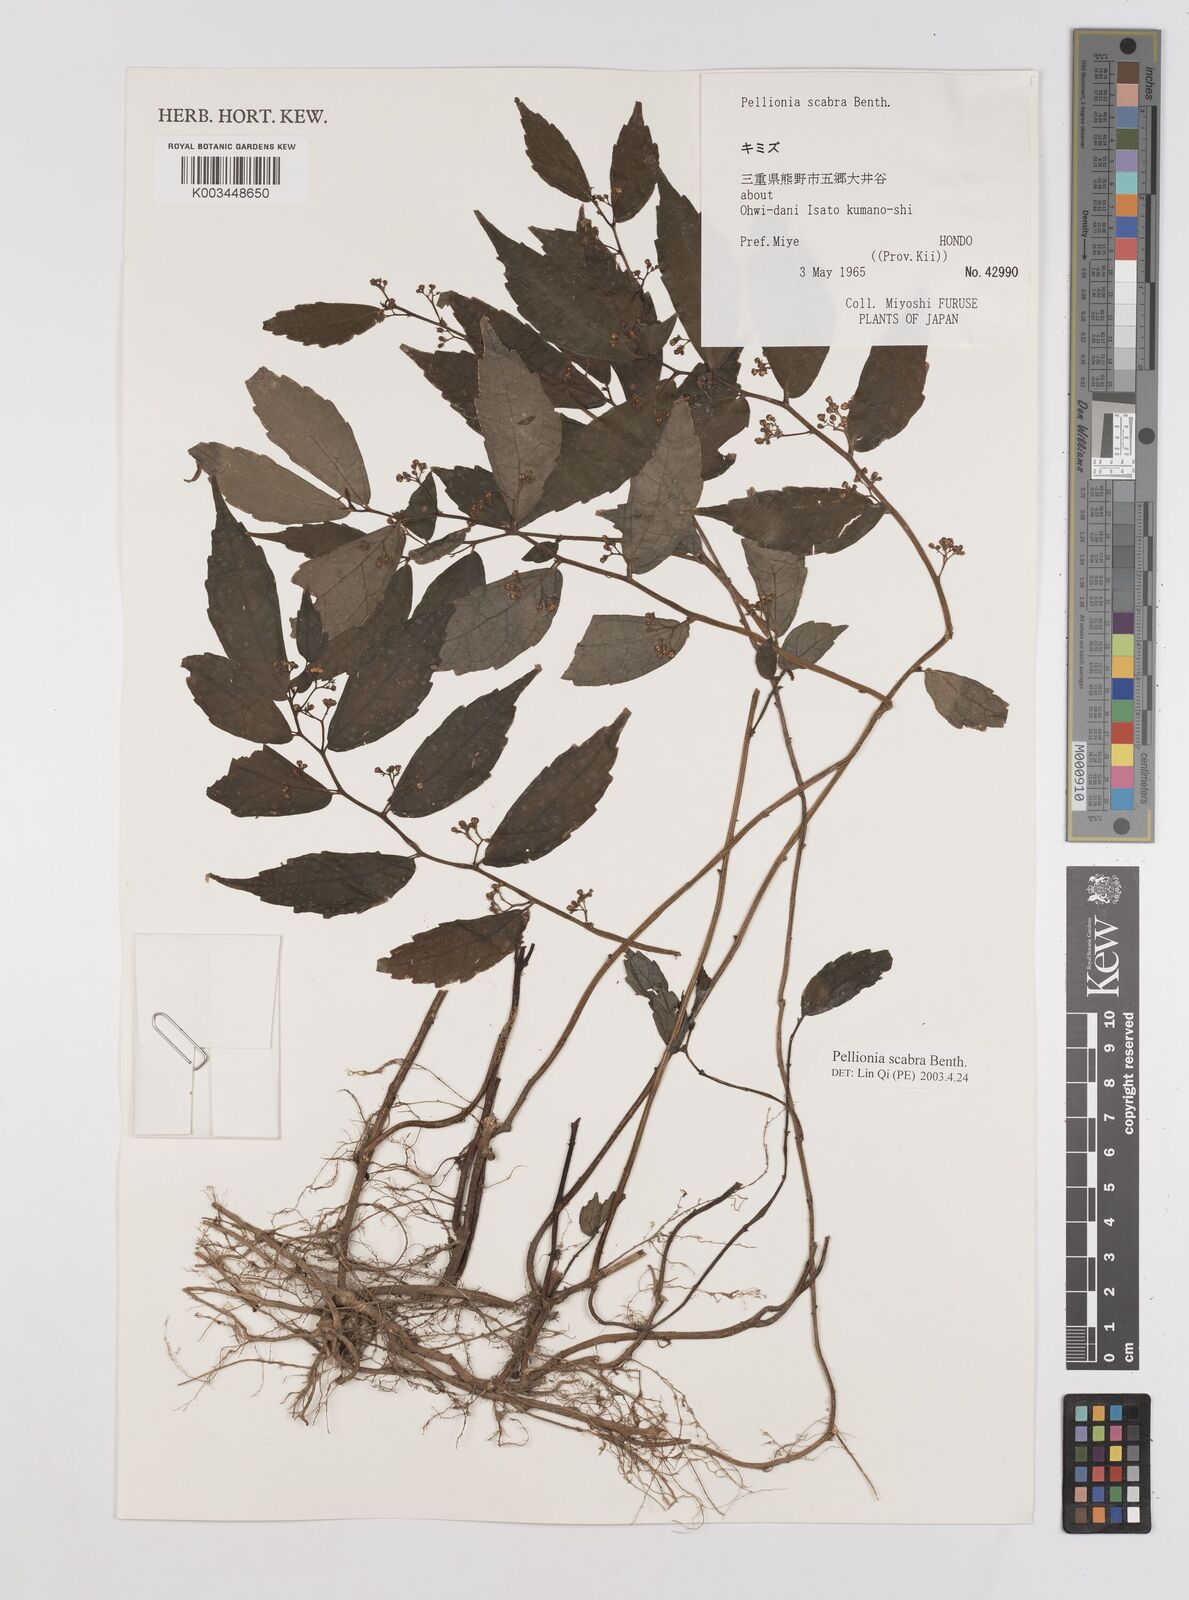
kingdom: Plantae
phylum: Tracheophyta
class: Magnoliopsida
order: Rosales
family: Urticaceae
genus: Elatostema
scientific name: Elatostema
